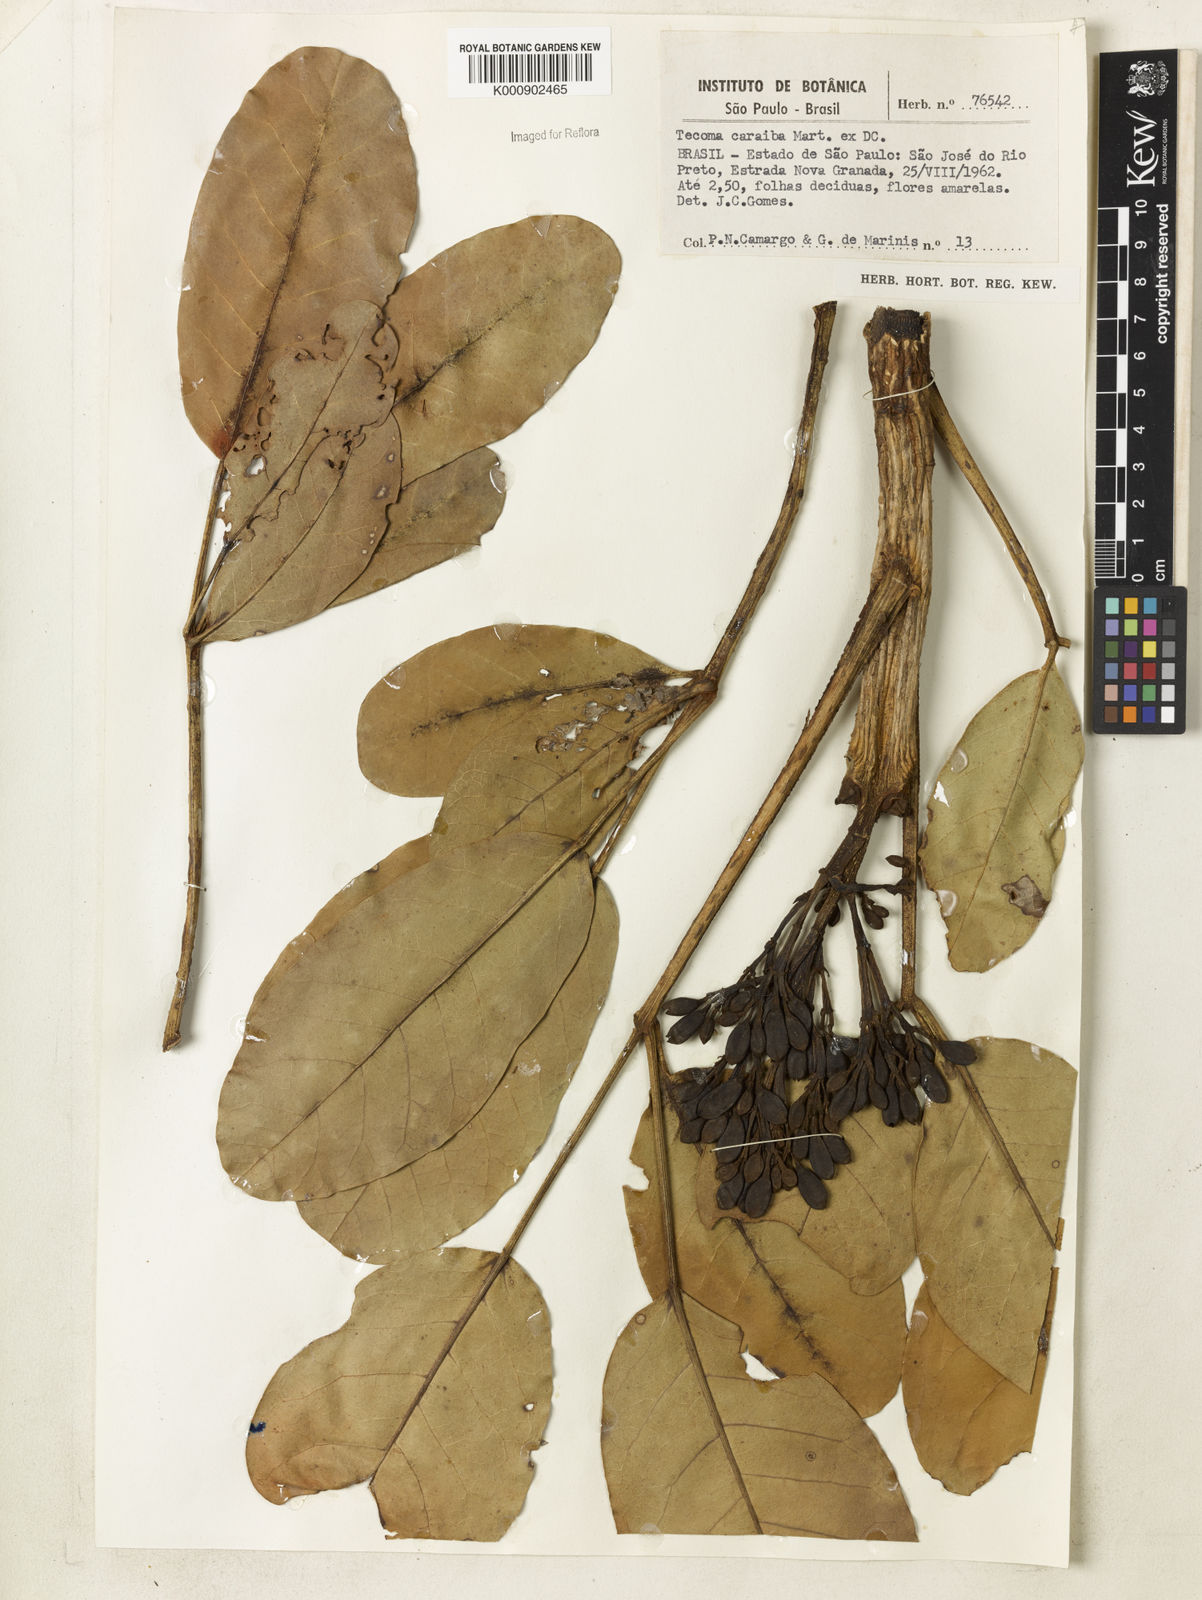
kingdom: Plantae
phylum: Tracheophyta
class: Magnoliopsida
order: Lamiales
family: Bignoniaceae
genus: Tabebuia
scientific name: Tabebuia aurea
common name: Caribbean trumpet-tree
